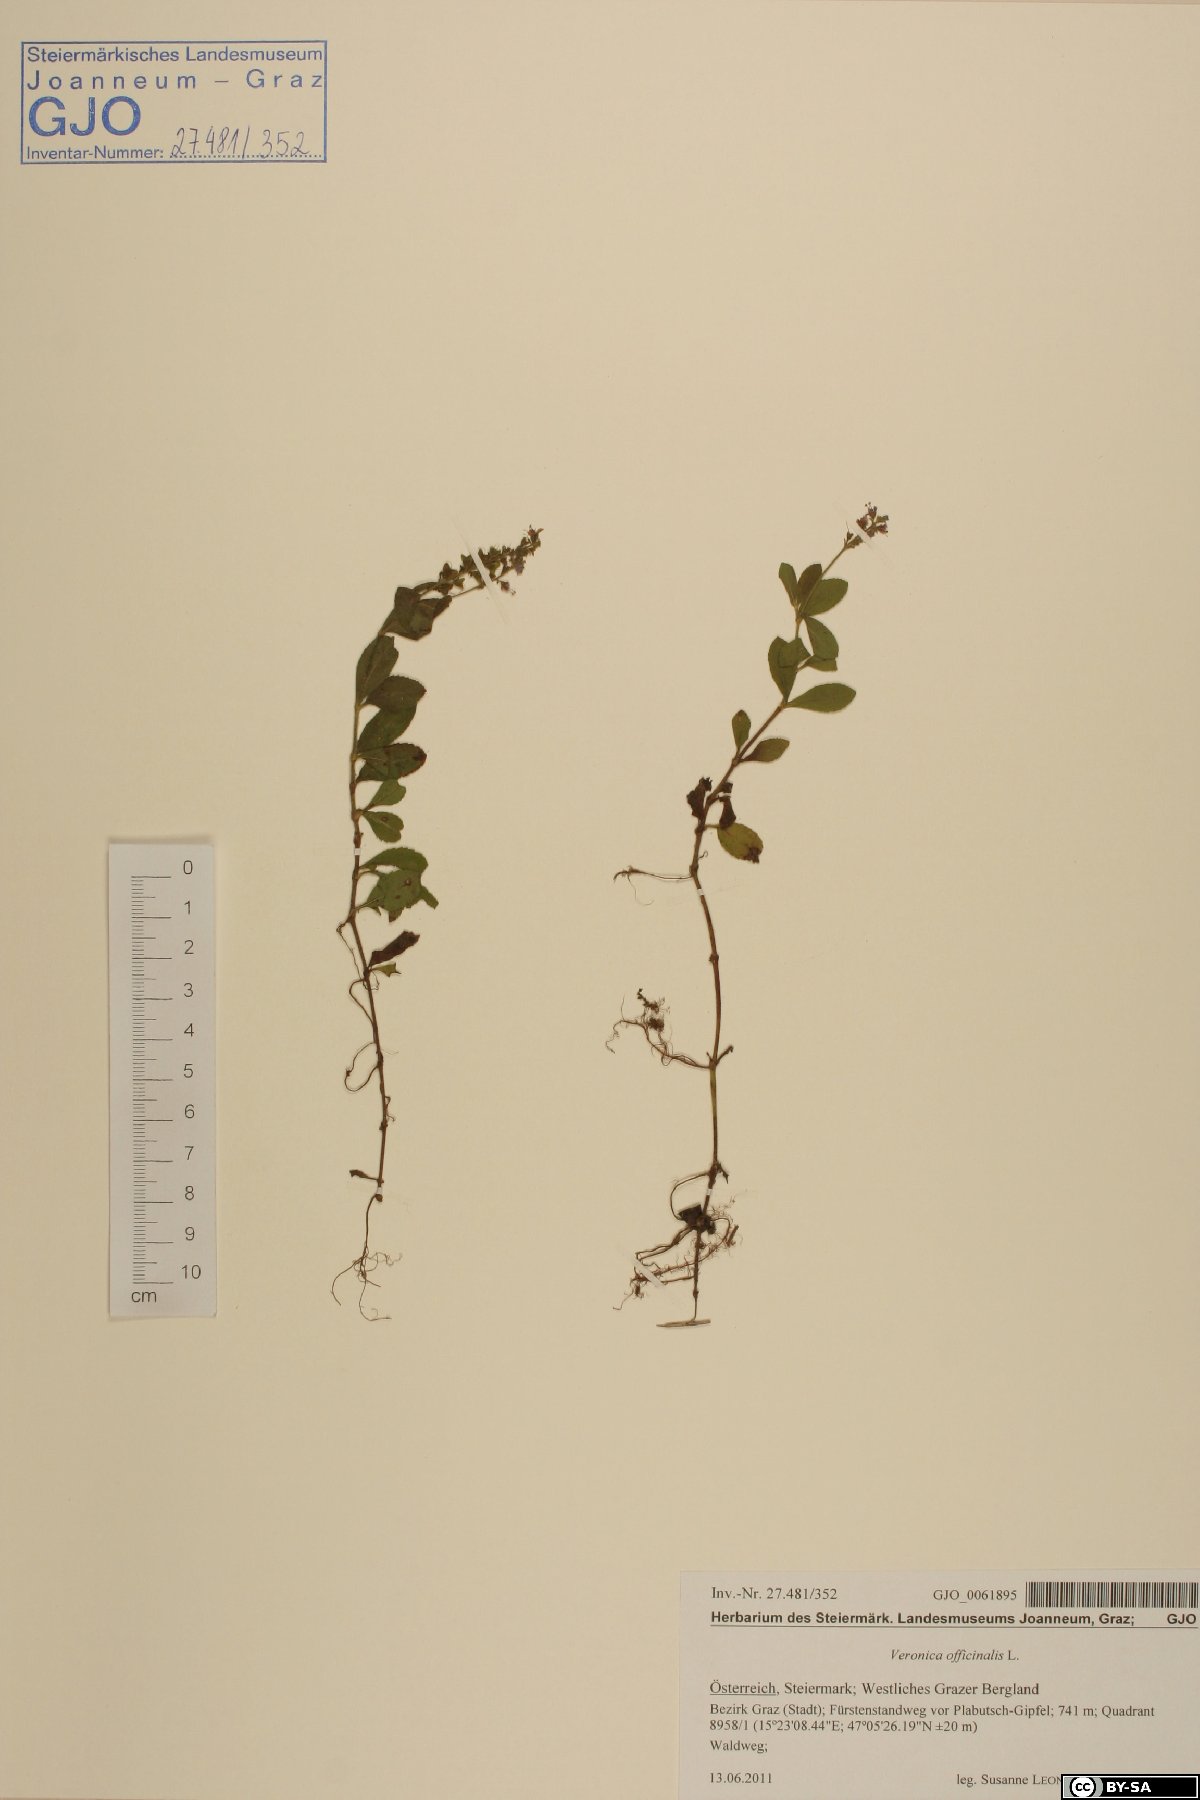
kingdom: Plantae
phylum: Tracheophyta
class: Magnoliopsida
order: Lamiales
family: Plantaginaceae
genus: Veronica
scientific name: Veronica officinalis
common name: Common speedwell
